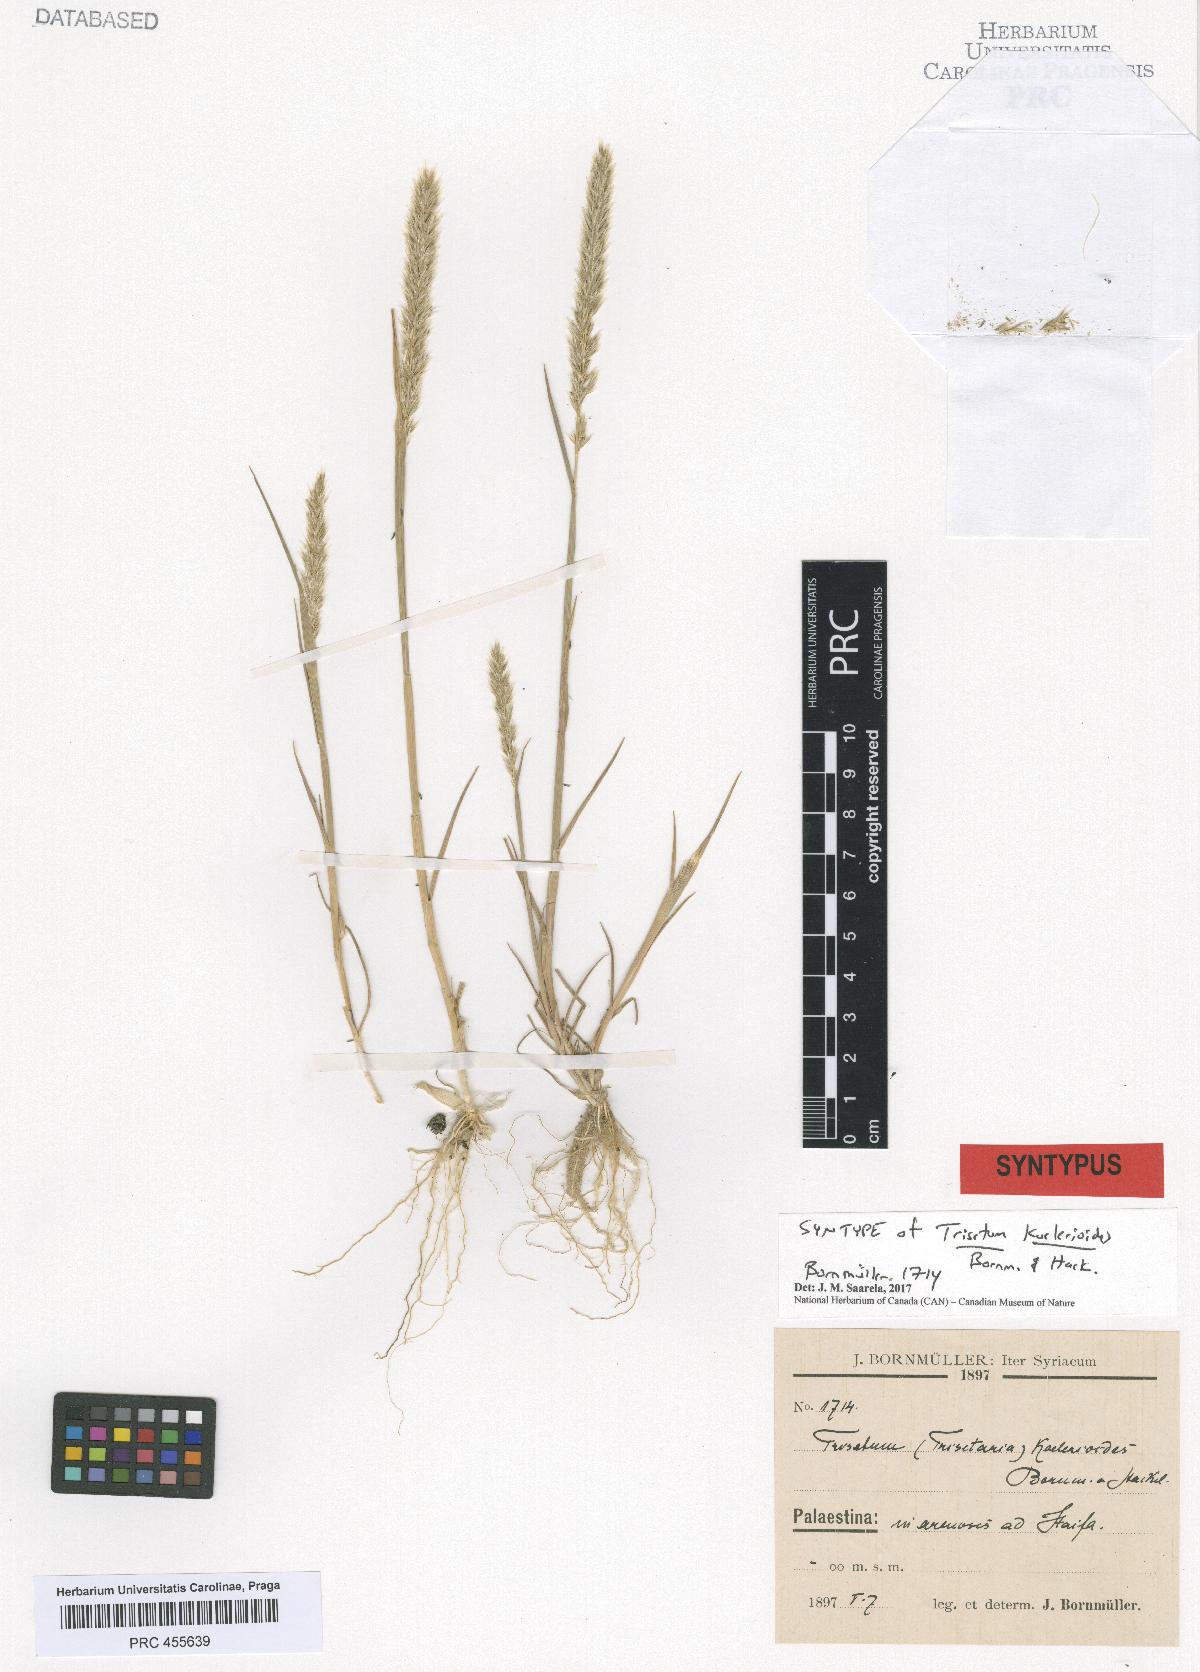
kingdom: Plantae
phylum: Tracheophyta
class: Liliopsida
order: Poales
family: Poaceae
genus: Trisetaria
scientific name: Trisetaria koelerioides
